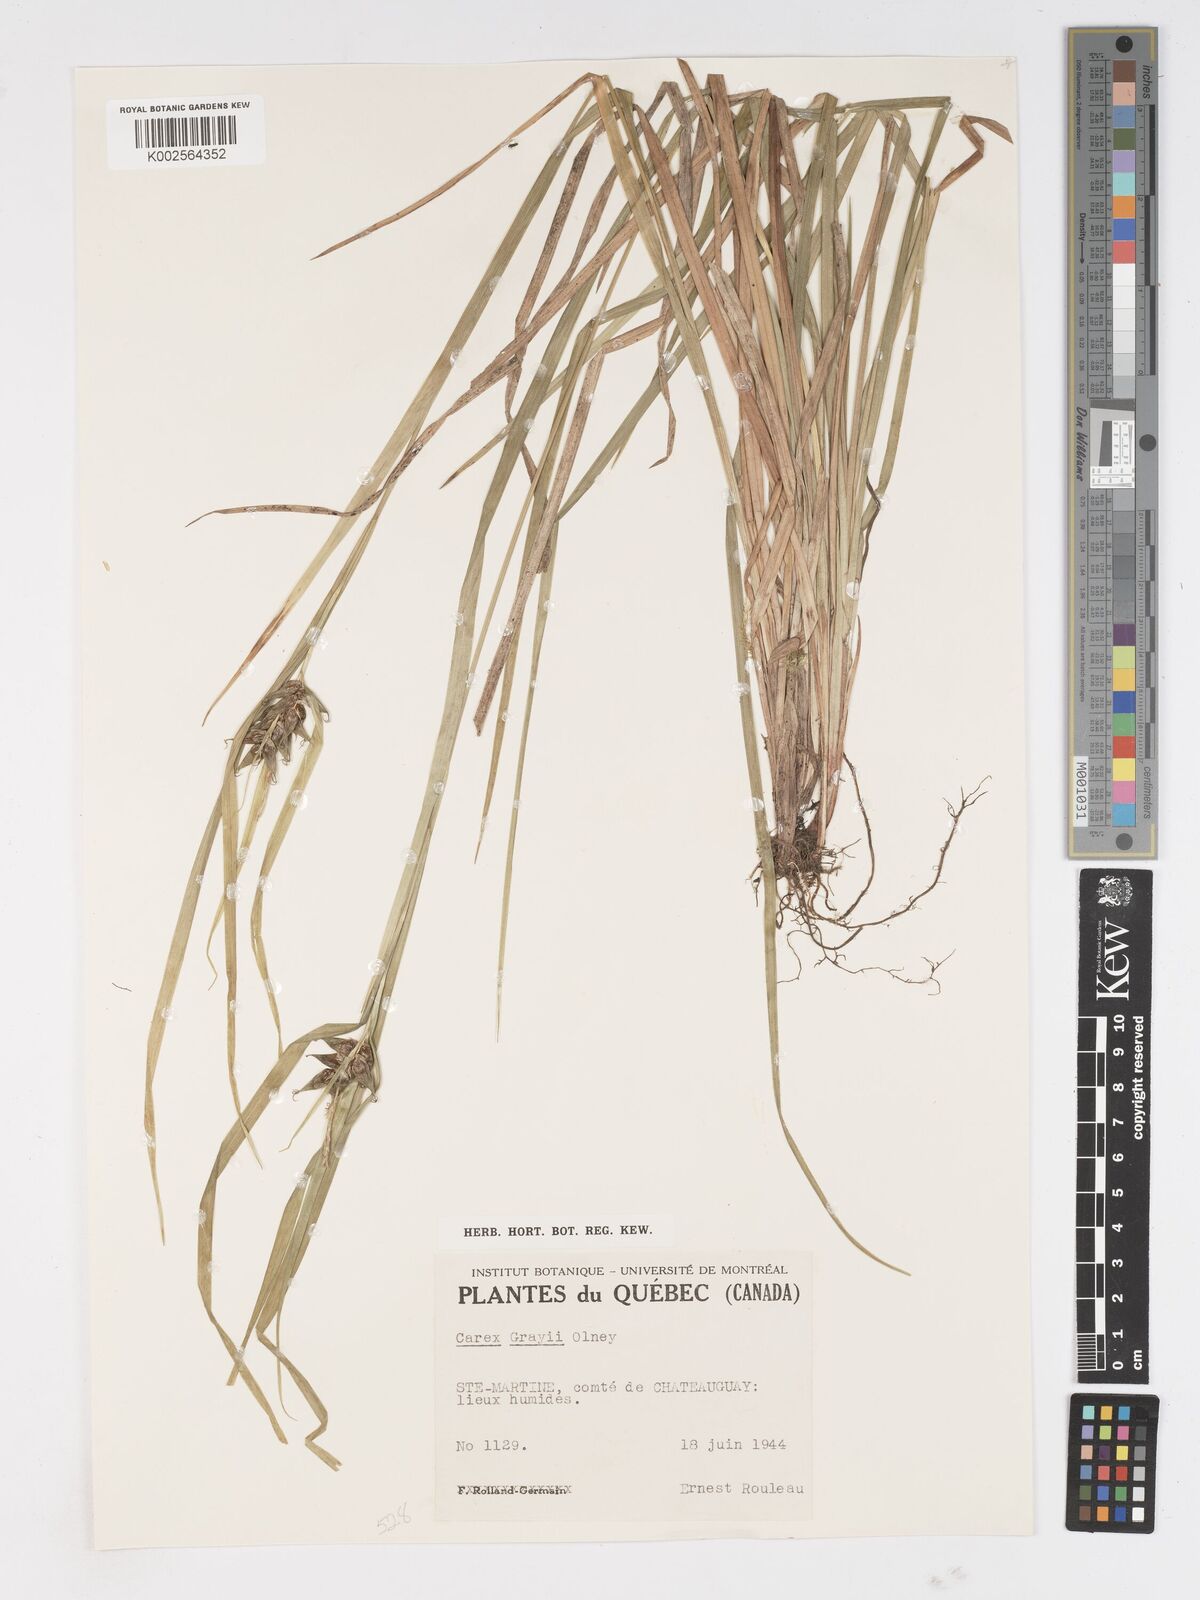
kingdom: Plantae
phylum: Tracheophyta
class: Liliopsida
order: Poales
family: Cyperaceae
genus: Carex
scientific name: Carex grayi
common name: Asa gray's sedge
